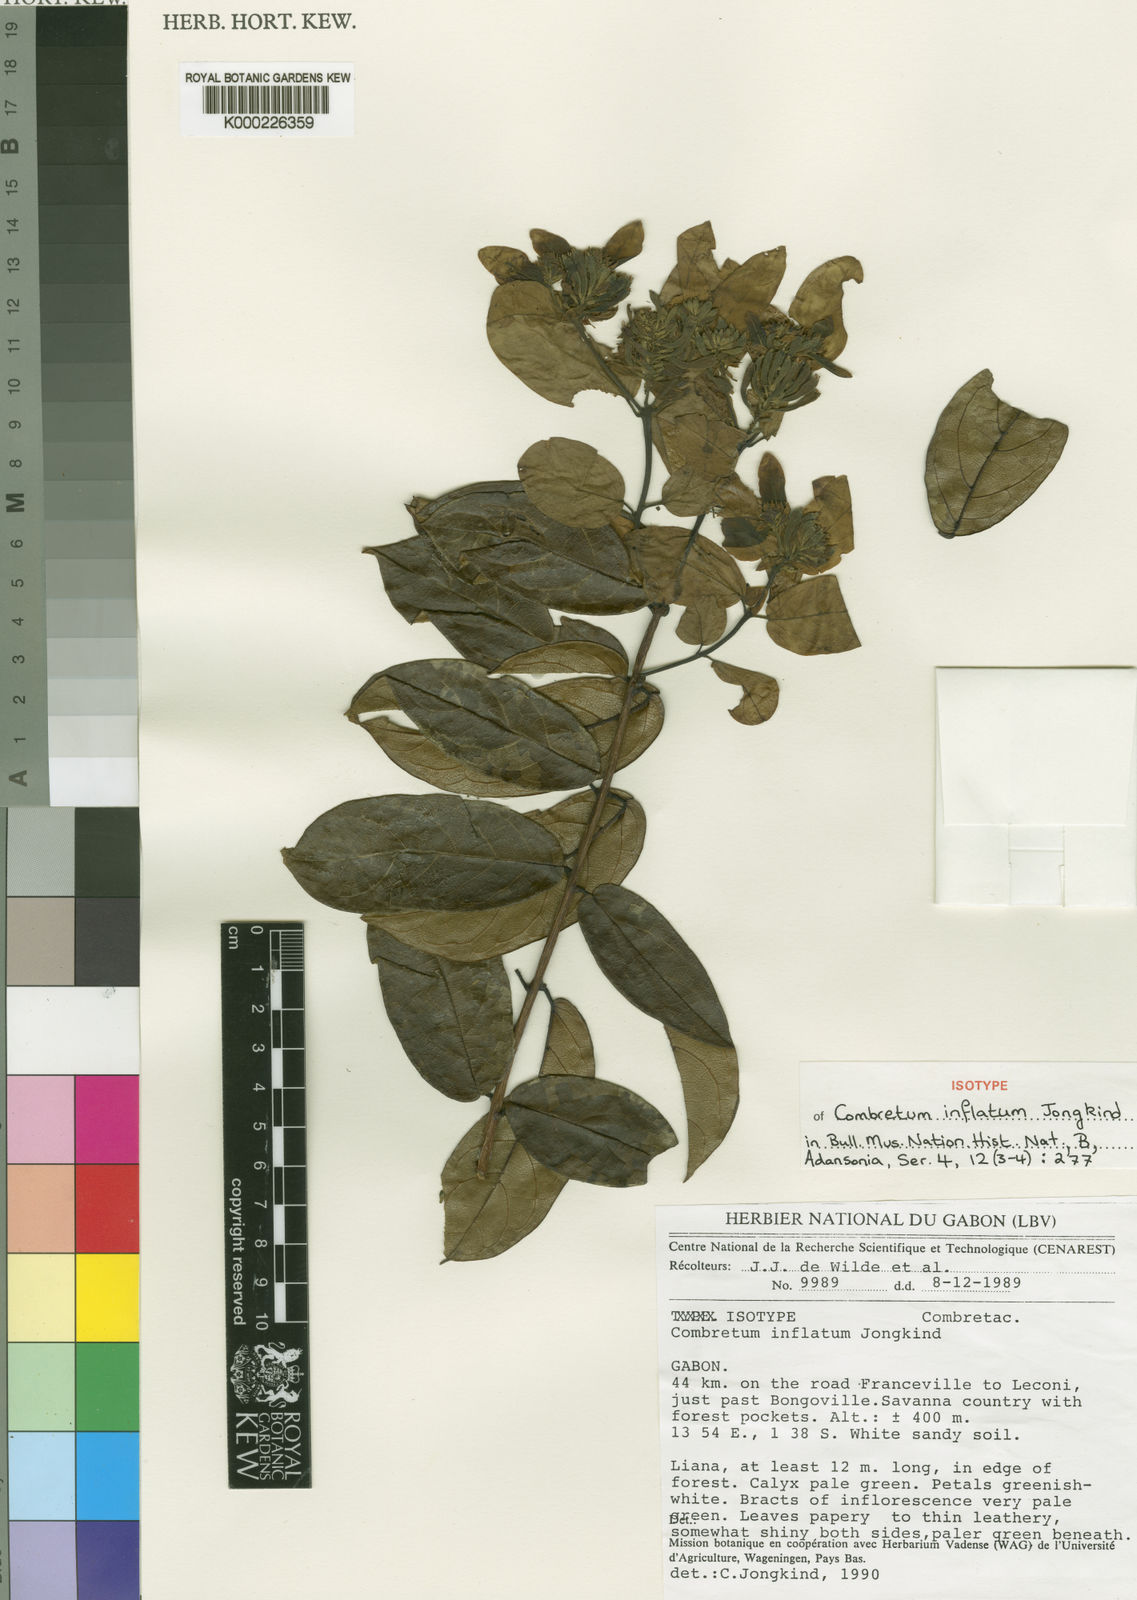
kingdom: Plantae
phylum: Tracheophyta
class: Magnoliopsida
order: Myrtales
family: Combretaceae
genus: Combretum
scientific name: Combretum inflatum
